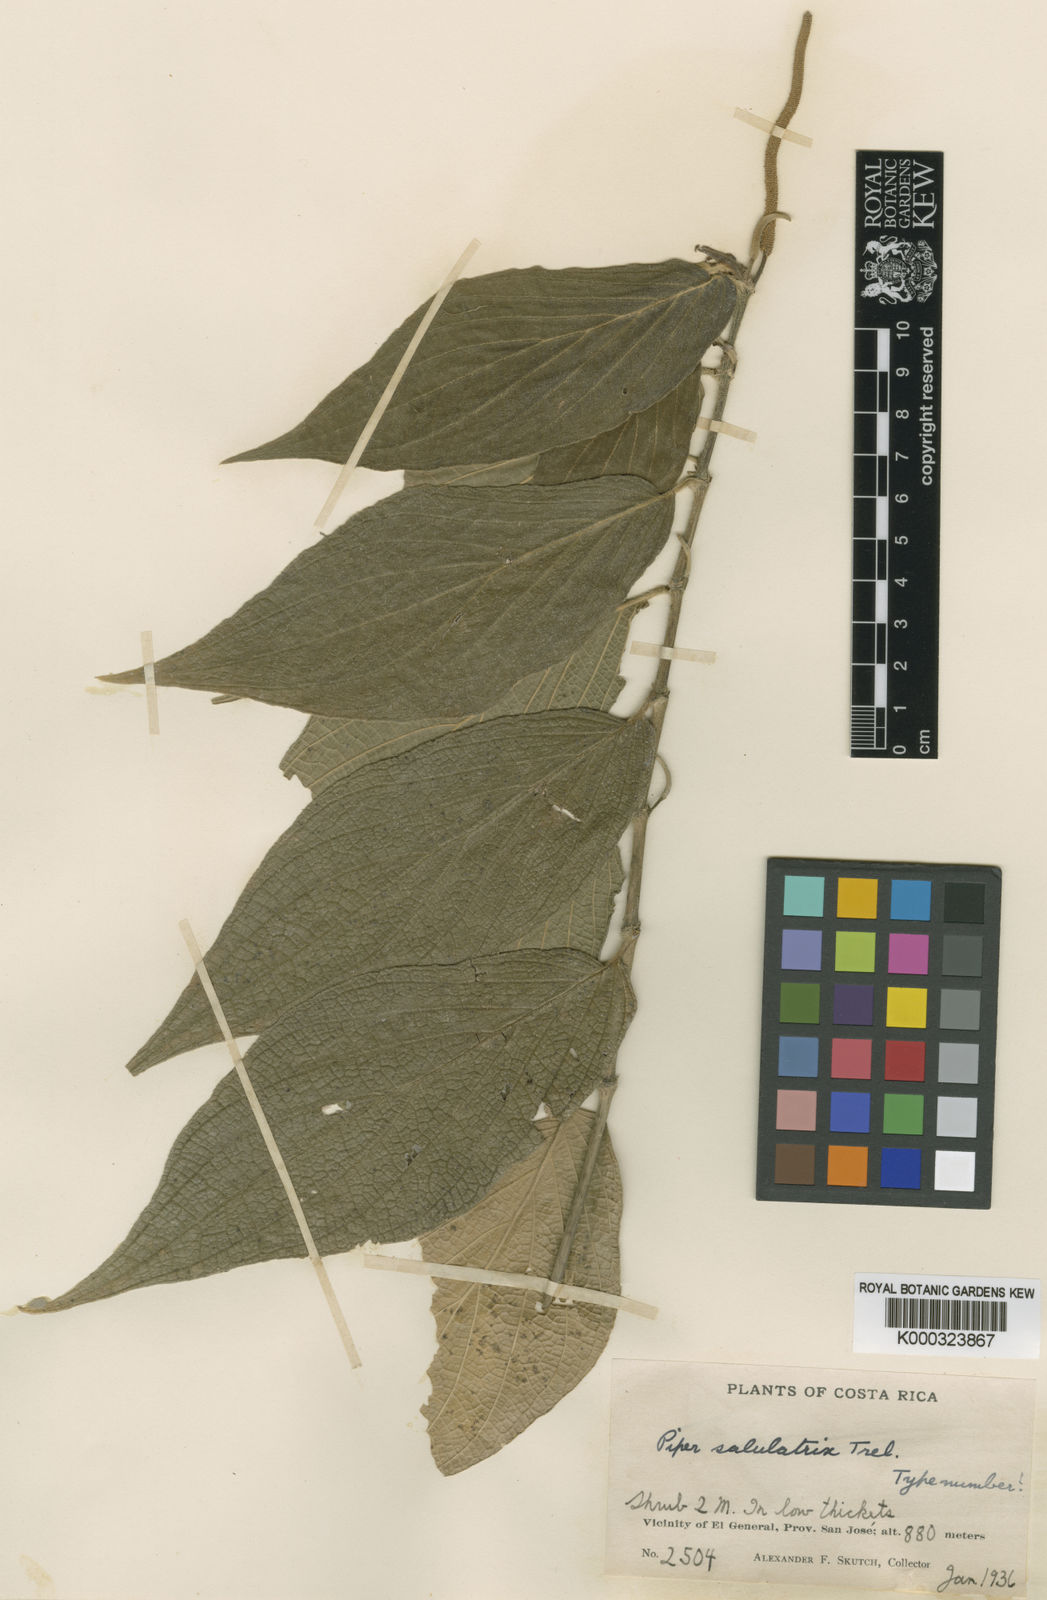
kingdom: Plantae
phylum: Tracheophyta
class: Magnoliopsida
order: Piperales
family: Piperaceae
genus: Piper
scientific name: Piper pseudofuligineum
